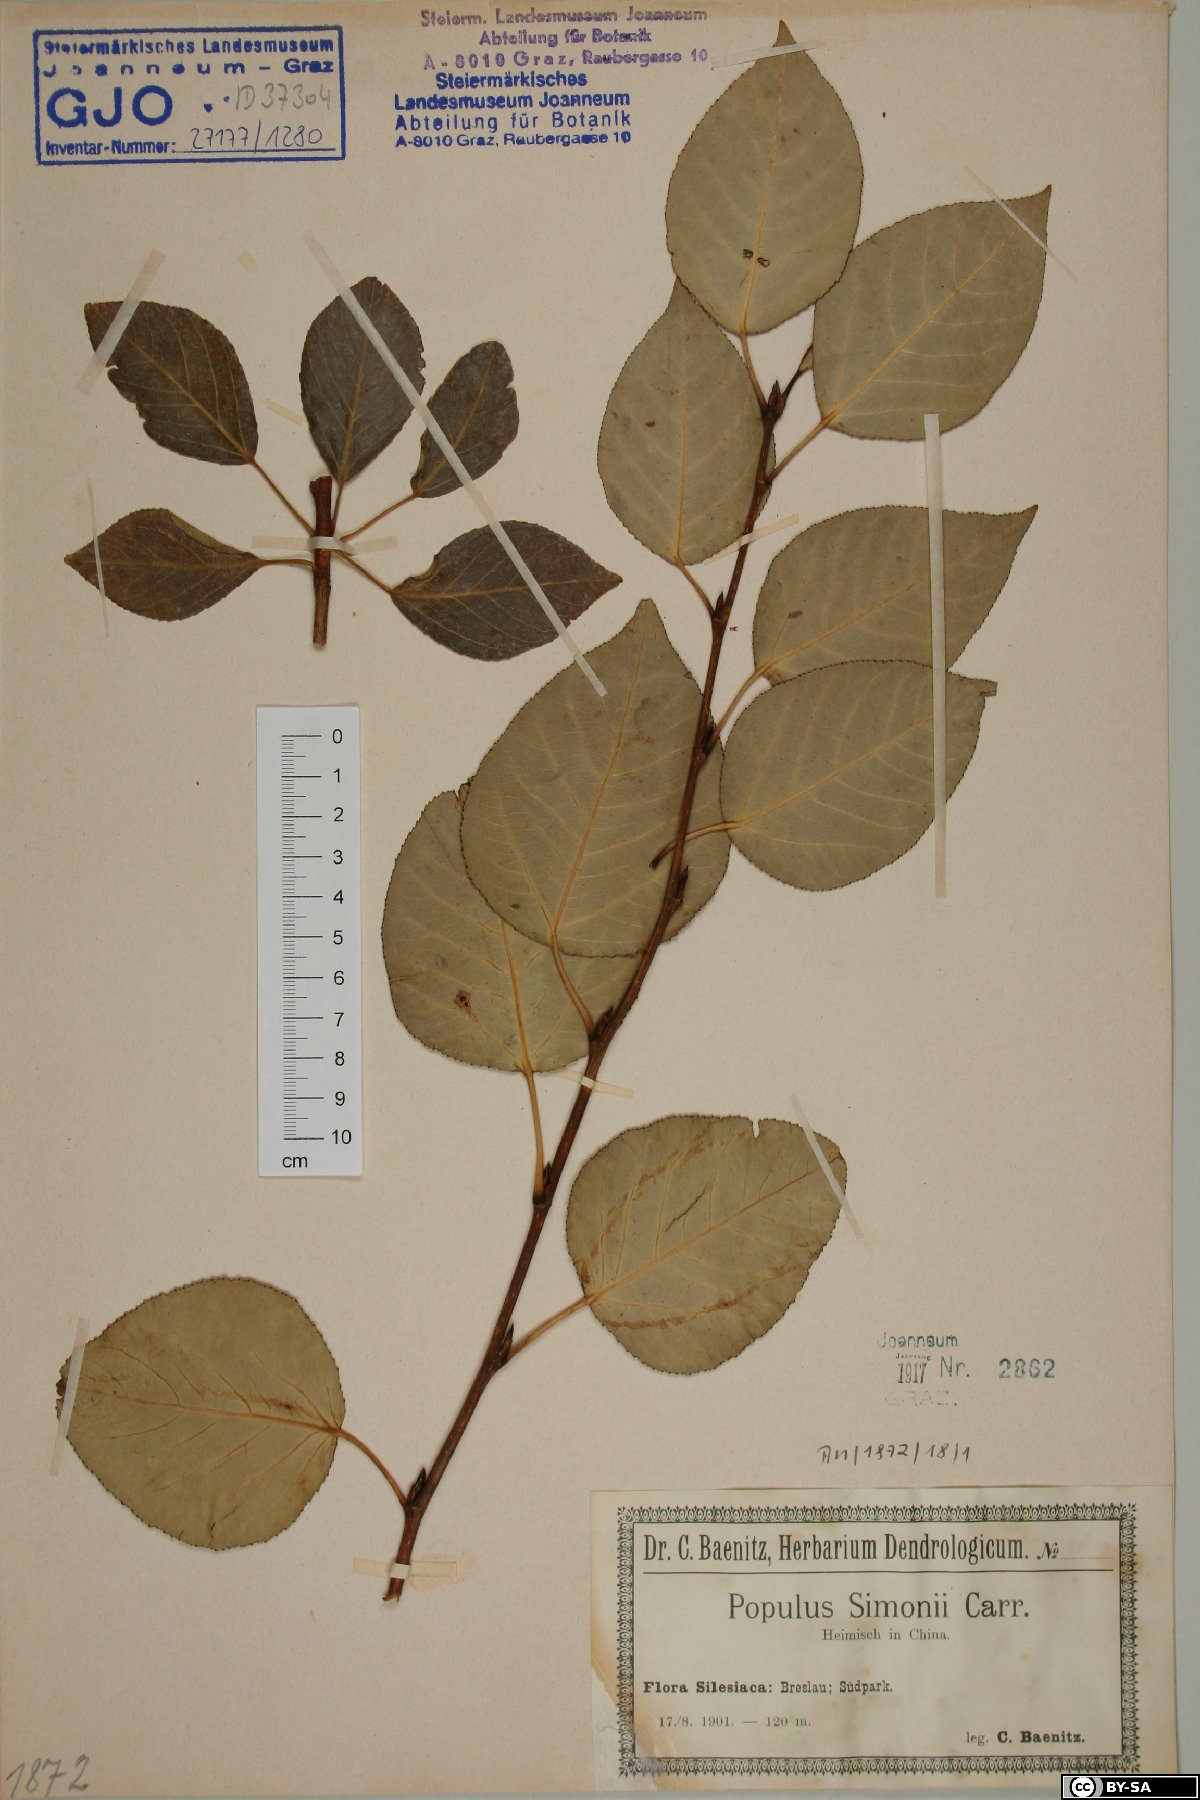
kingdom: Plantae
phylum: Tracheophyta
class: Magnoliopsida
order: Malpighiales
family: Salicaceae
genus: Populus
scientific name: Populus simonii
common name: Simon poplar
